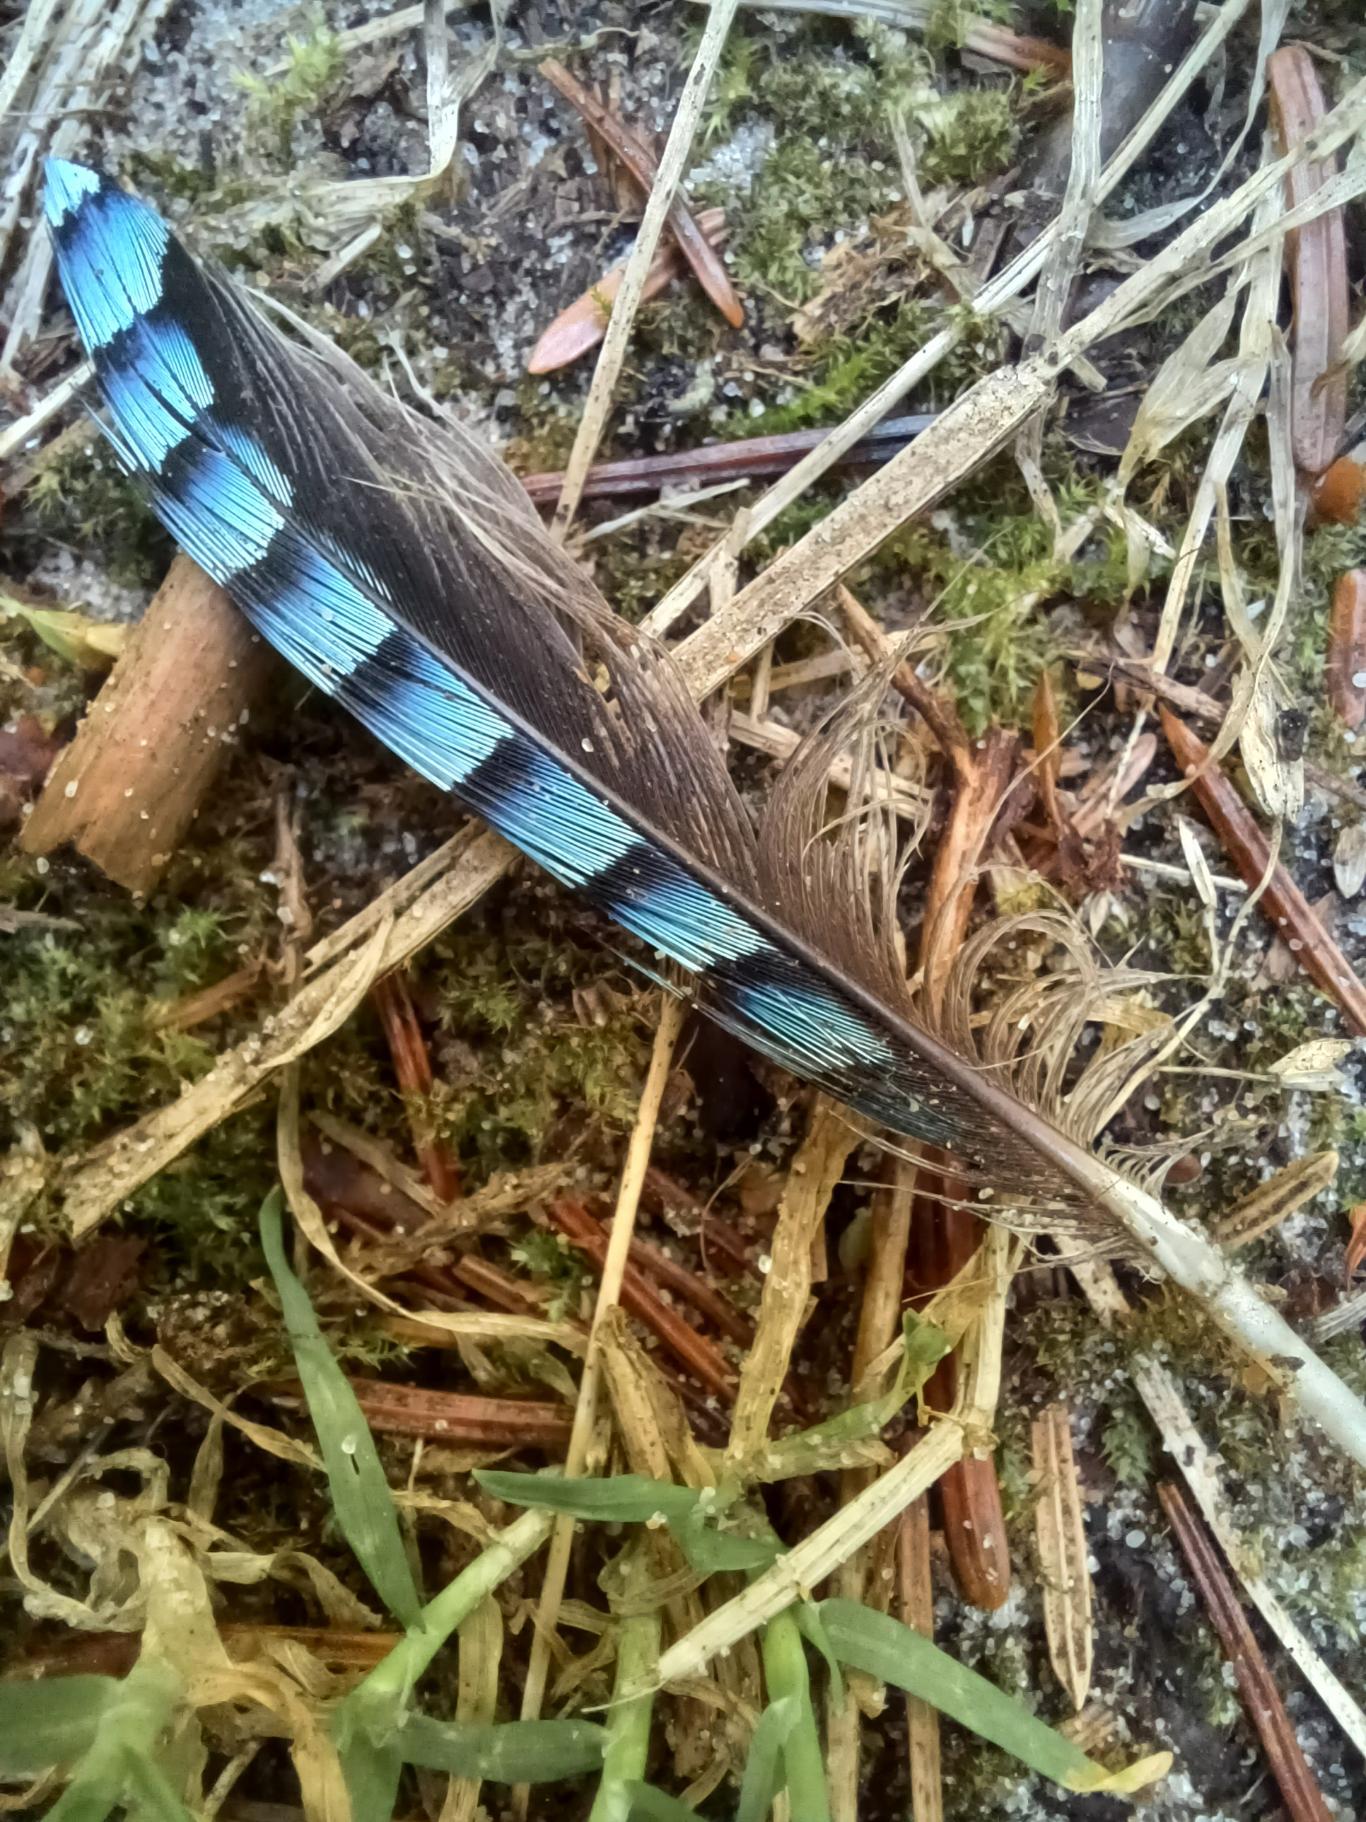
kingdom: Animalia
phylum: Chordata
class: Aves
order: Passeriformes
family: Corvidae
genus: Garrulus
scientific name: Garrulus glandarius
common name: Skovskade
